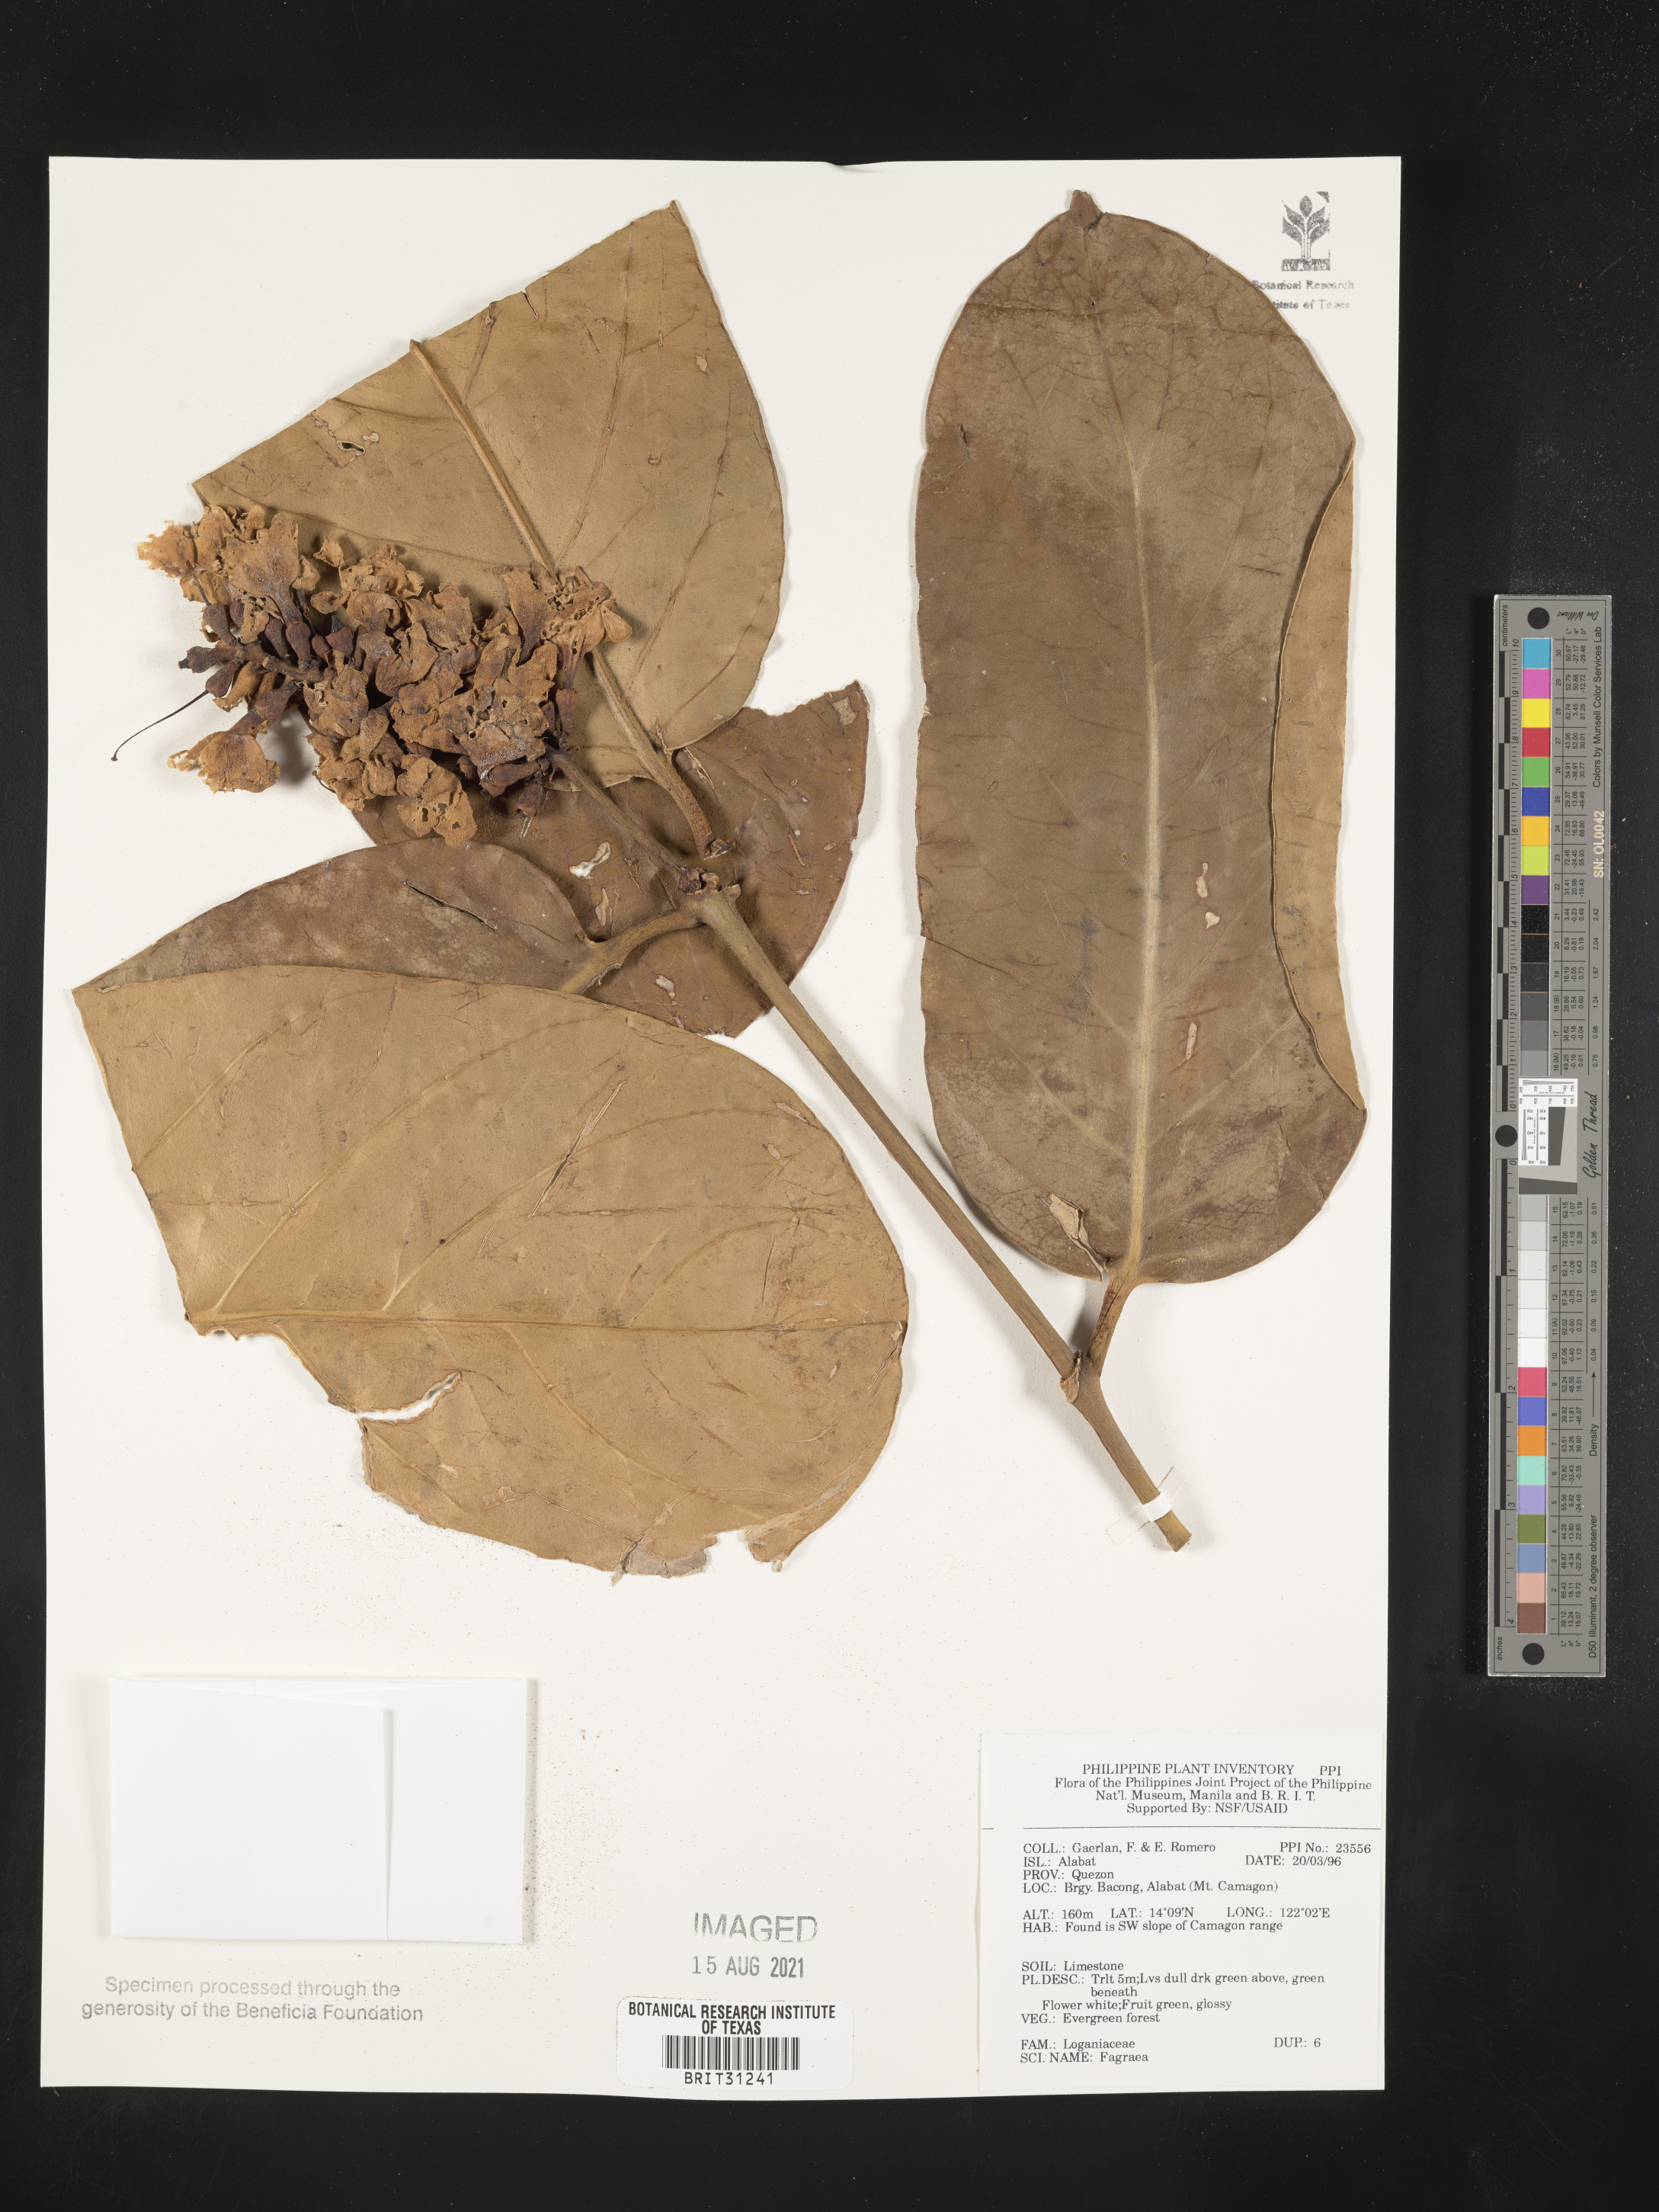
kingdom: Plantae
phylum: Tracheophyta
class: Magnoliopsida
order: Gentianales
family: Gentianaceae
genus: Fagraea
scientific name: Fagraea
